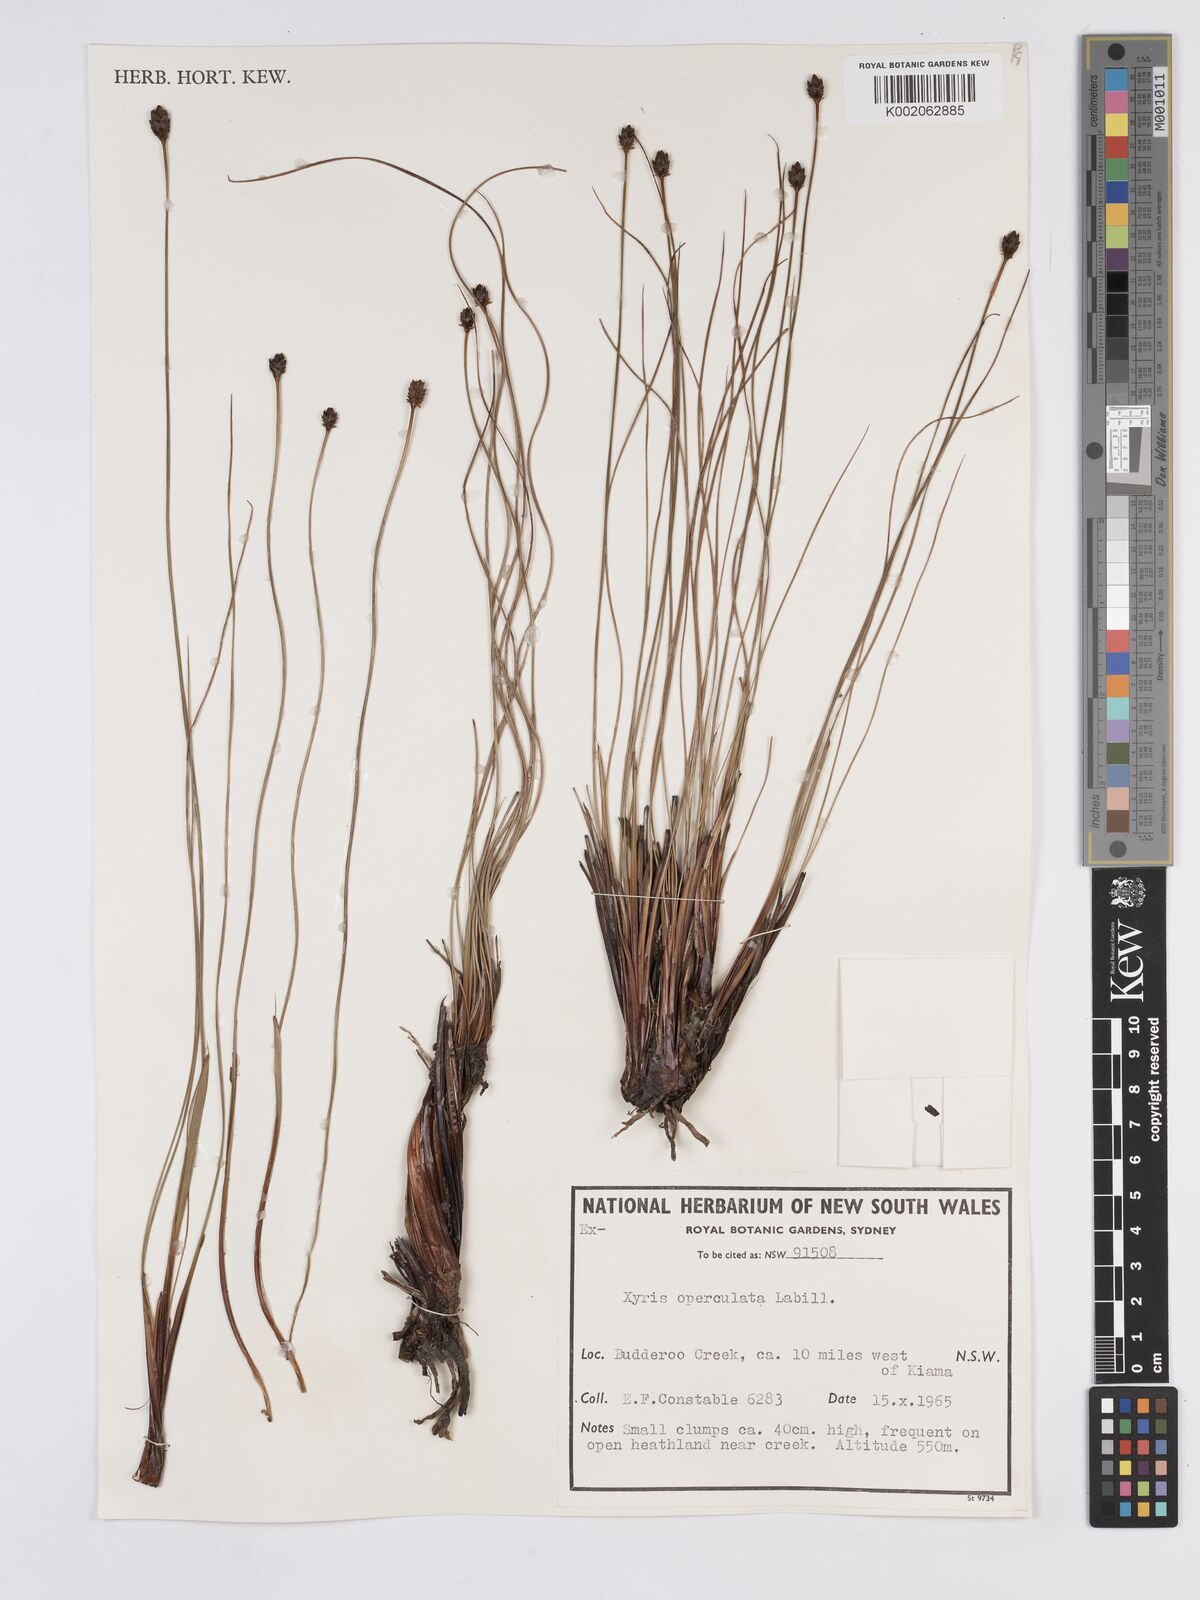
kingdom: Plantae
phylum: Tracheophyta
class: Liliopsida
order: Poales
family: Xyridaceae
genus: Xyris
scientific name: Xyris operculata
